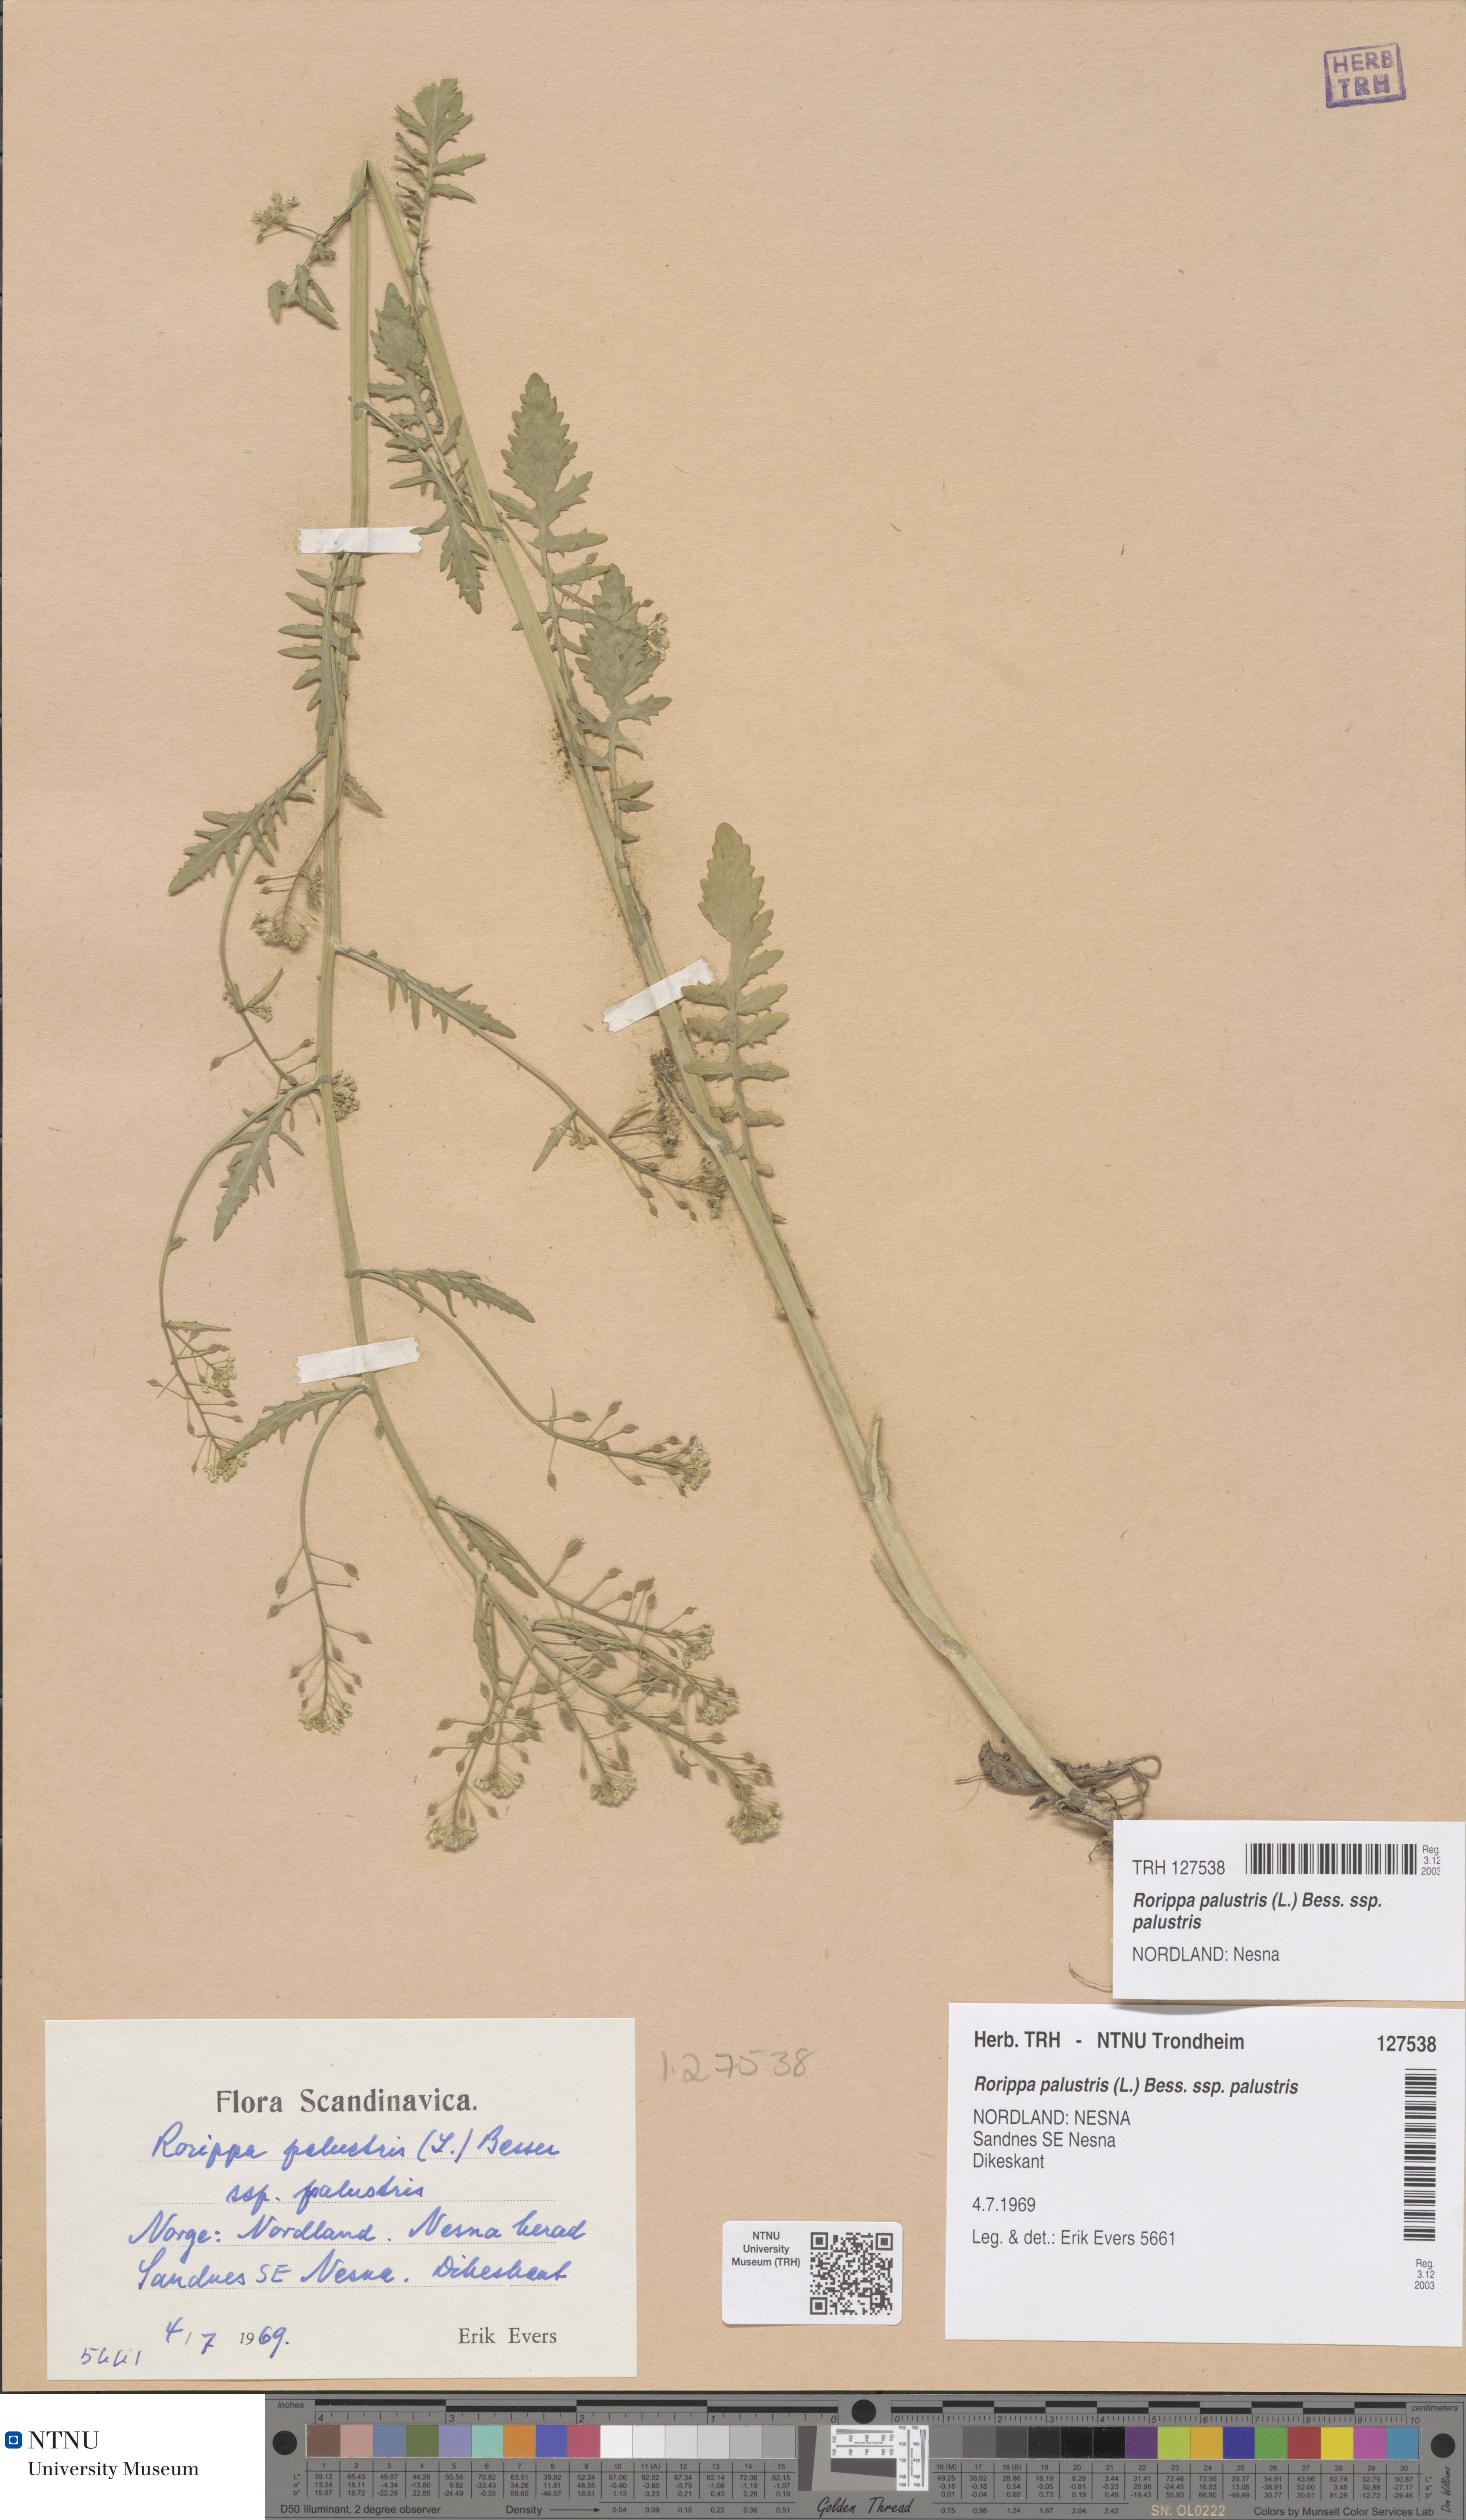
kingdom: Plantae
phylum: Tracheophyta
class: Magnoliopsida
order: Brassicales
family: Brassicaceae
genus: Rorippa
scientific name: Rorippa palustris
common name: Marsh yellow-cress
